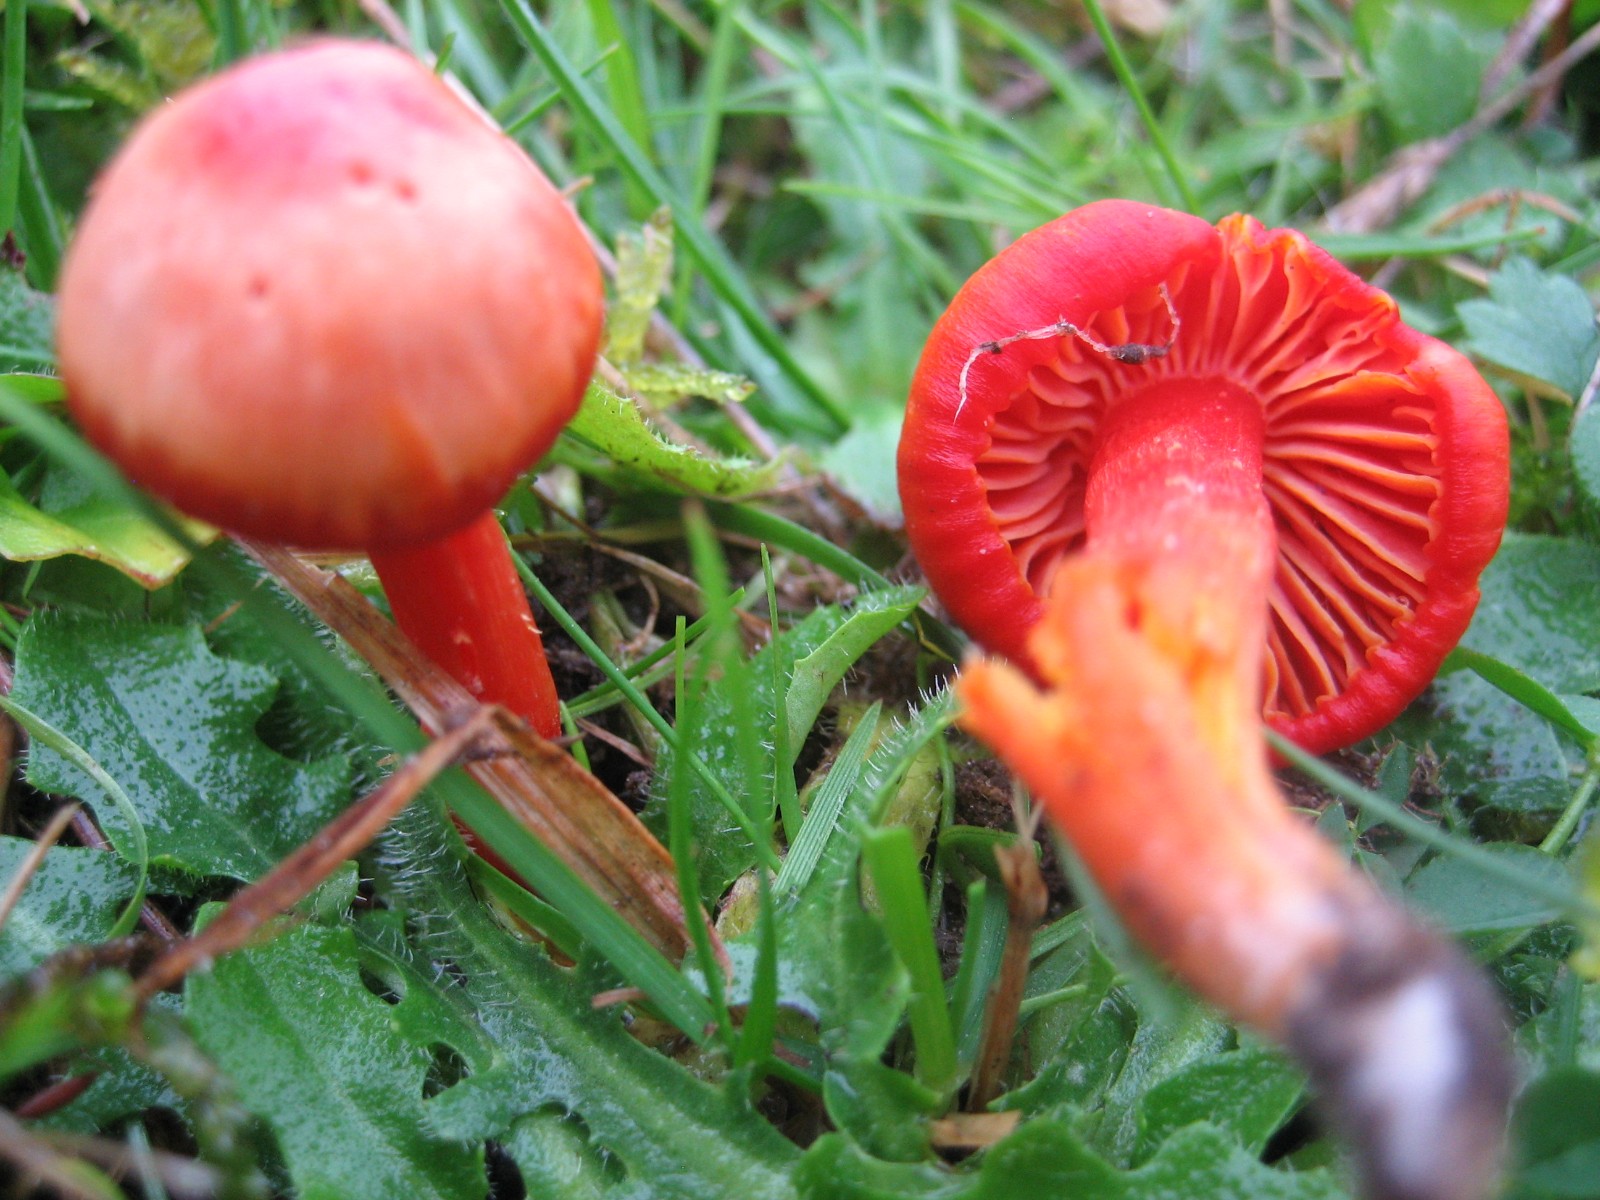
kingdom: Fungi
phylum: Basidiomycota
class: Agaricomycetes
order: Agaricales
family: Hygrophoraceae
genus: Hygrocybe
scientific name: Hygrocybe coccinea
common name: cinnober-vokshat
